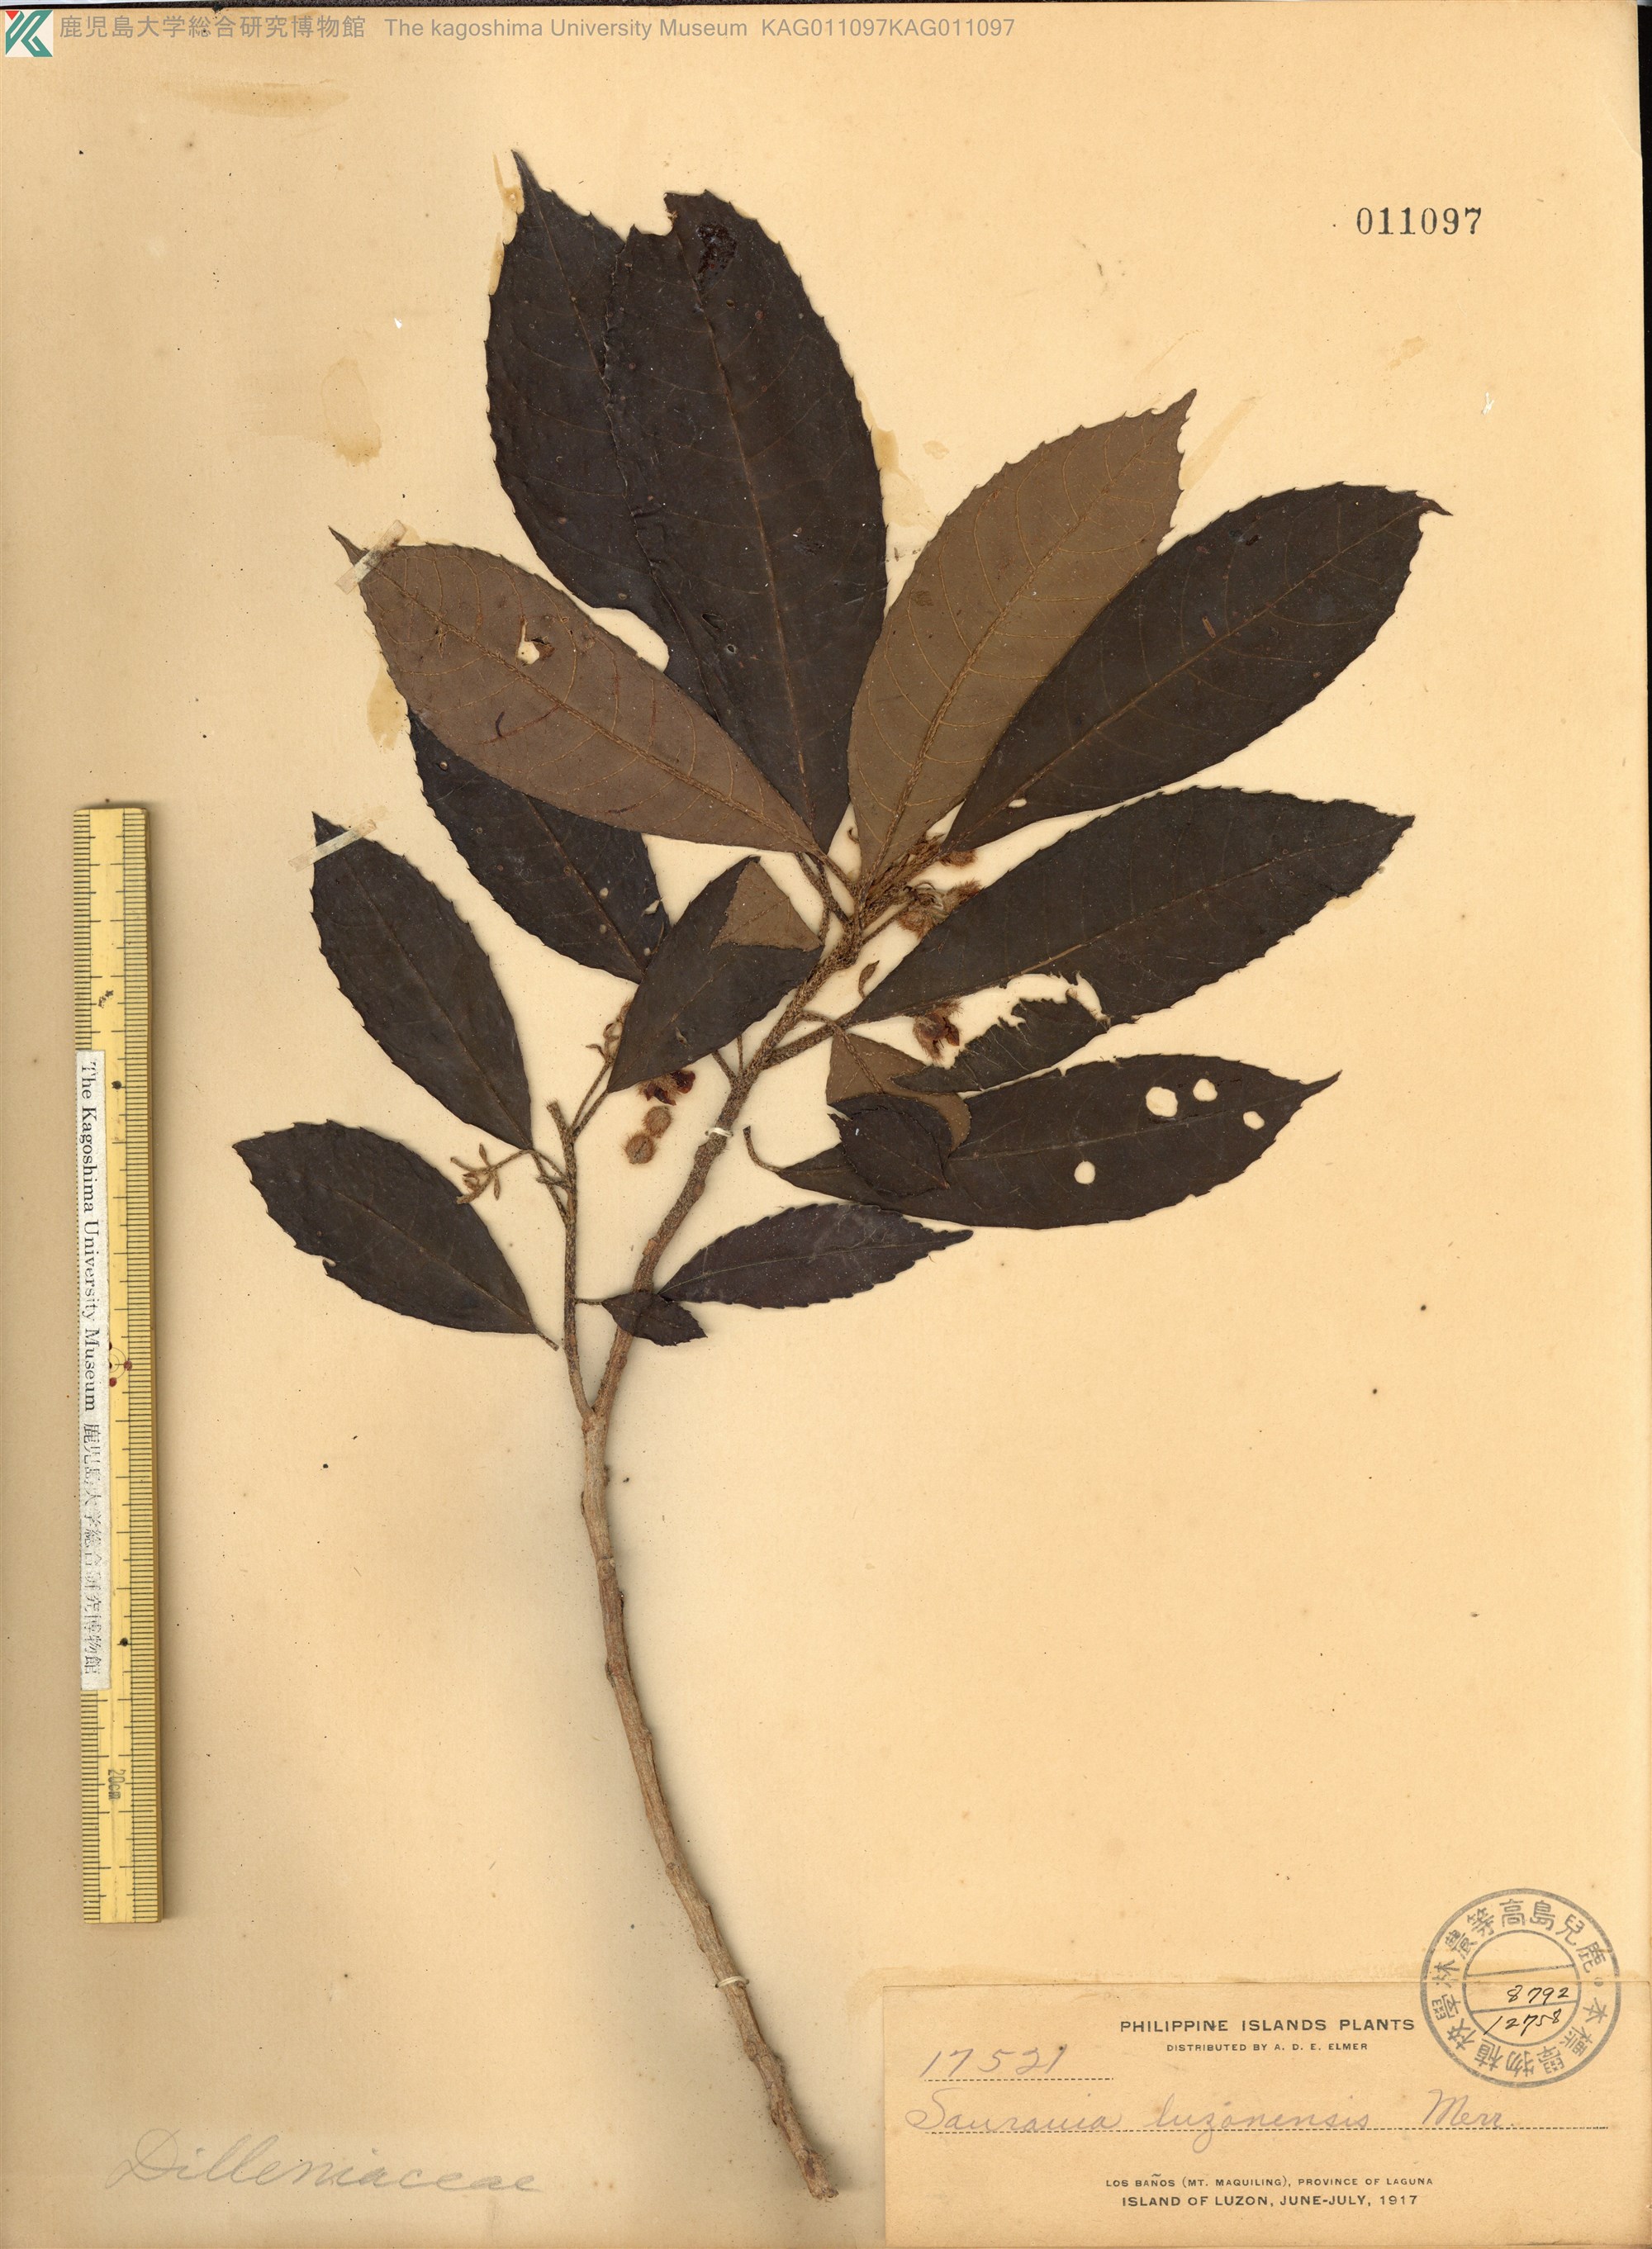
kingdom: Plantae
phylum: Tracheophyta
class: Magnoliopsida
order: Ericales
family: Actinidiaceae
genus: Saurauia
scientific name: Saurauia luzoniensis
